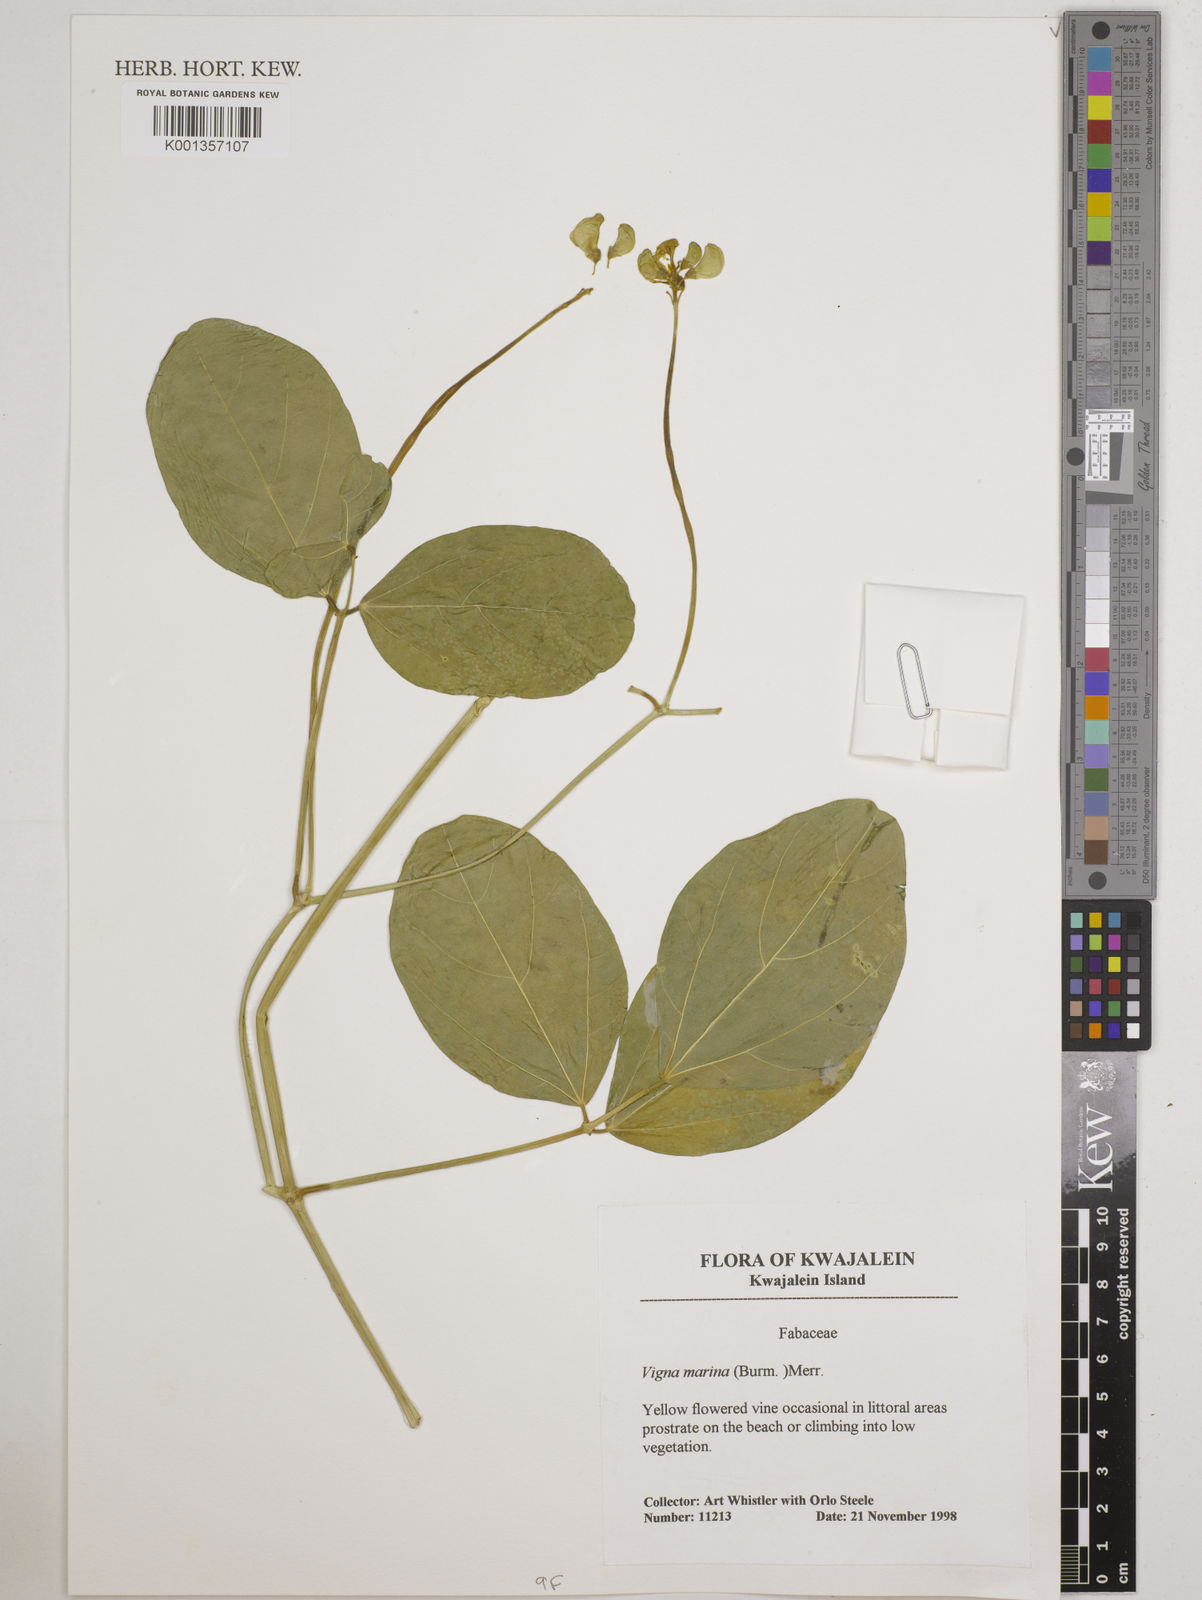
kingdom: Plantae
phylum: Tracheophyta
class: Magnoliopsida
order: Fabales
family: Fabaceae
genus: Vigna
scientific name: Vigna marina
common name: Dune-bean
